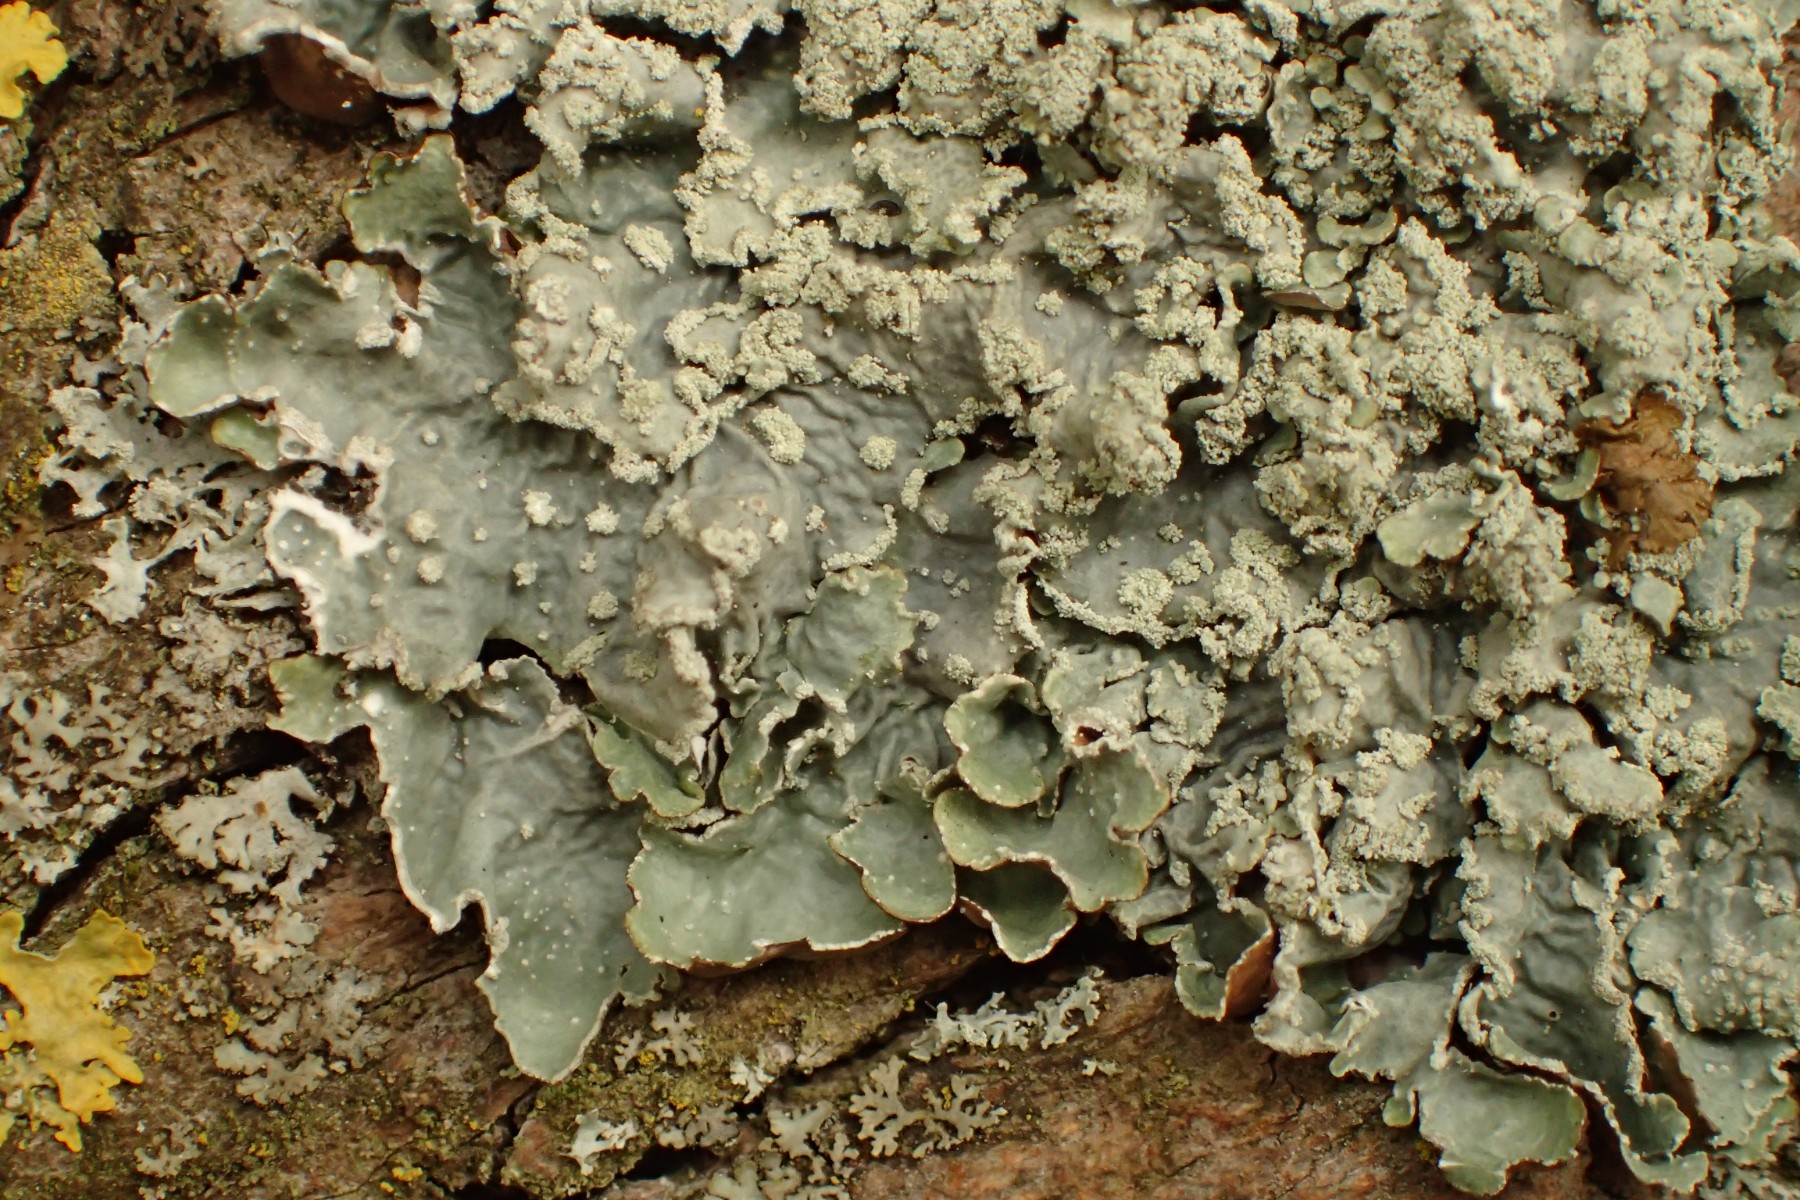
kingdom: Fungi
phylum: Ascomycota
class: Lecanoromycetes
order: Lecanorales
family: Parmeliaceae
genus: Punctelia
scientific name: Punctelia subrudecta
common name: punkt-skållav
